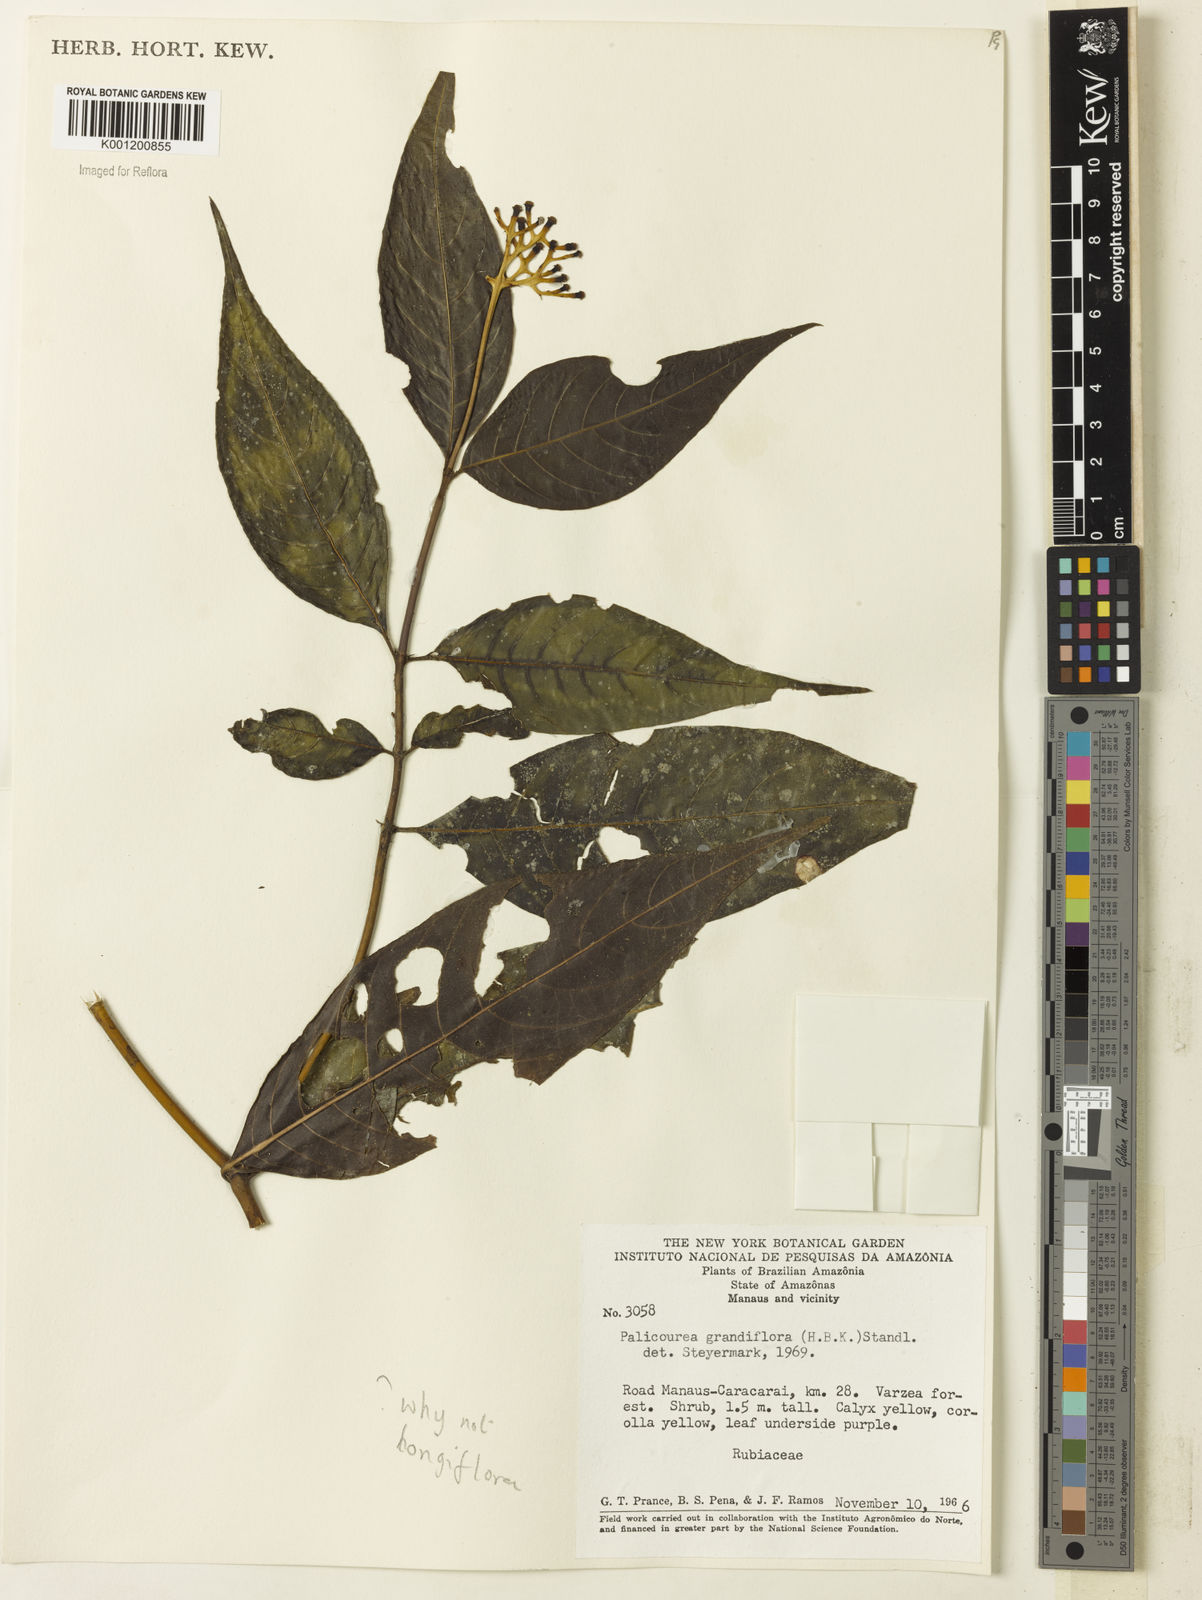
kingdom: Plantae
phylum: Tracheophyta
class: Magnoliopsida
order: Gentianales
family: Rubiaceae
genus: Palicourea
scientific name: Palicourea longiflora
